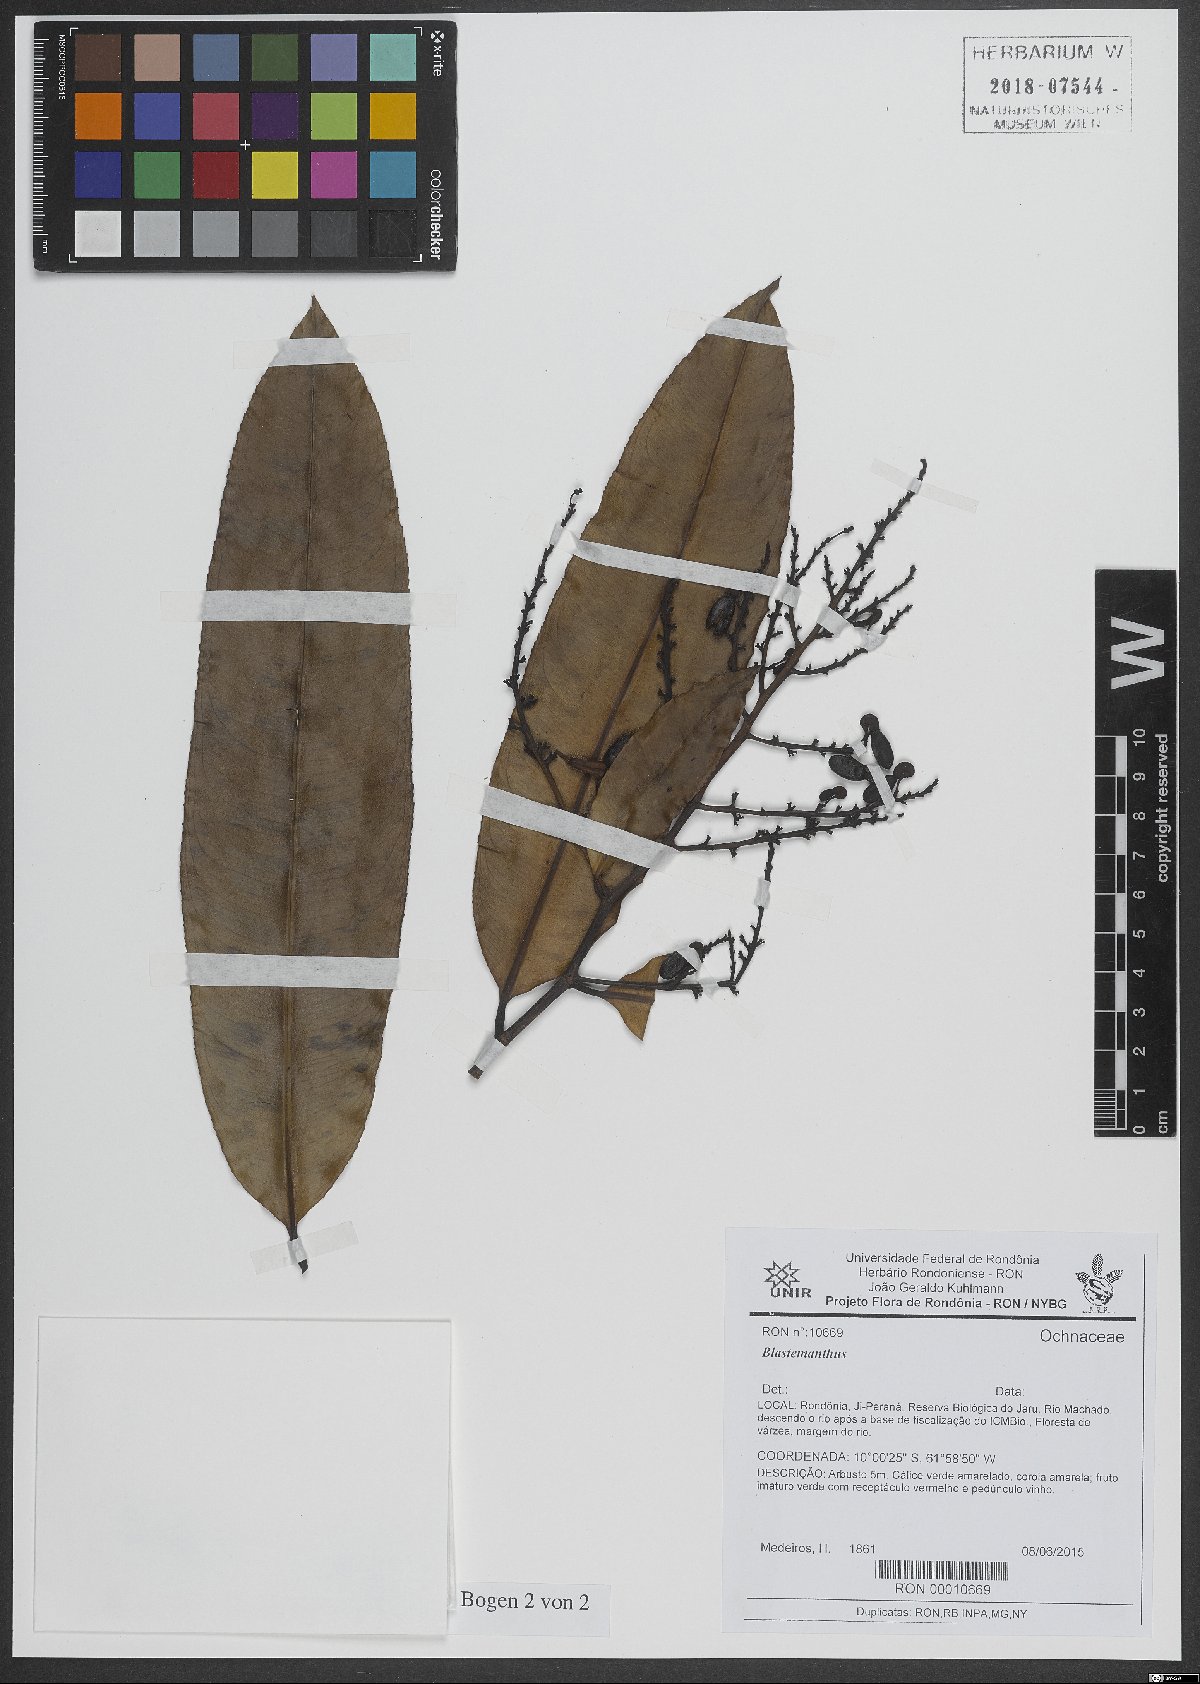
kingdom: Plantae
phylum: Tracheophyta
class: Magnoliopsida
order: Malpighiales
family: Ochnaceae
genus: Blastemanthus
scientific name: Blastemanthus
